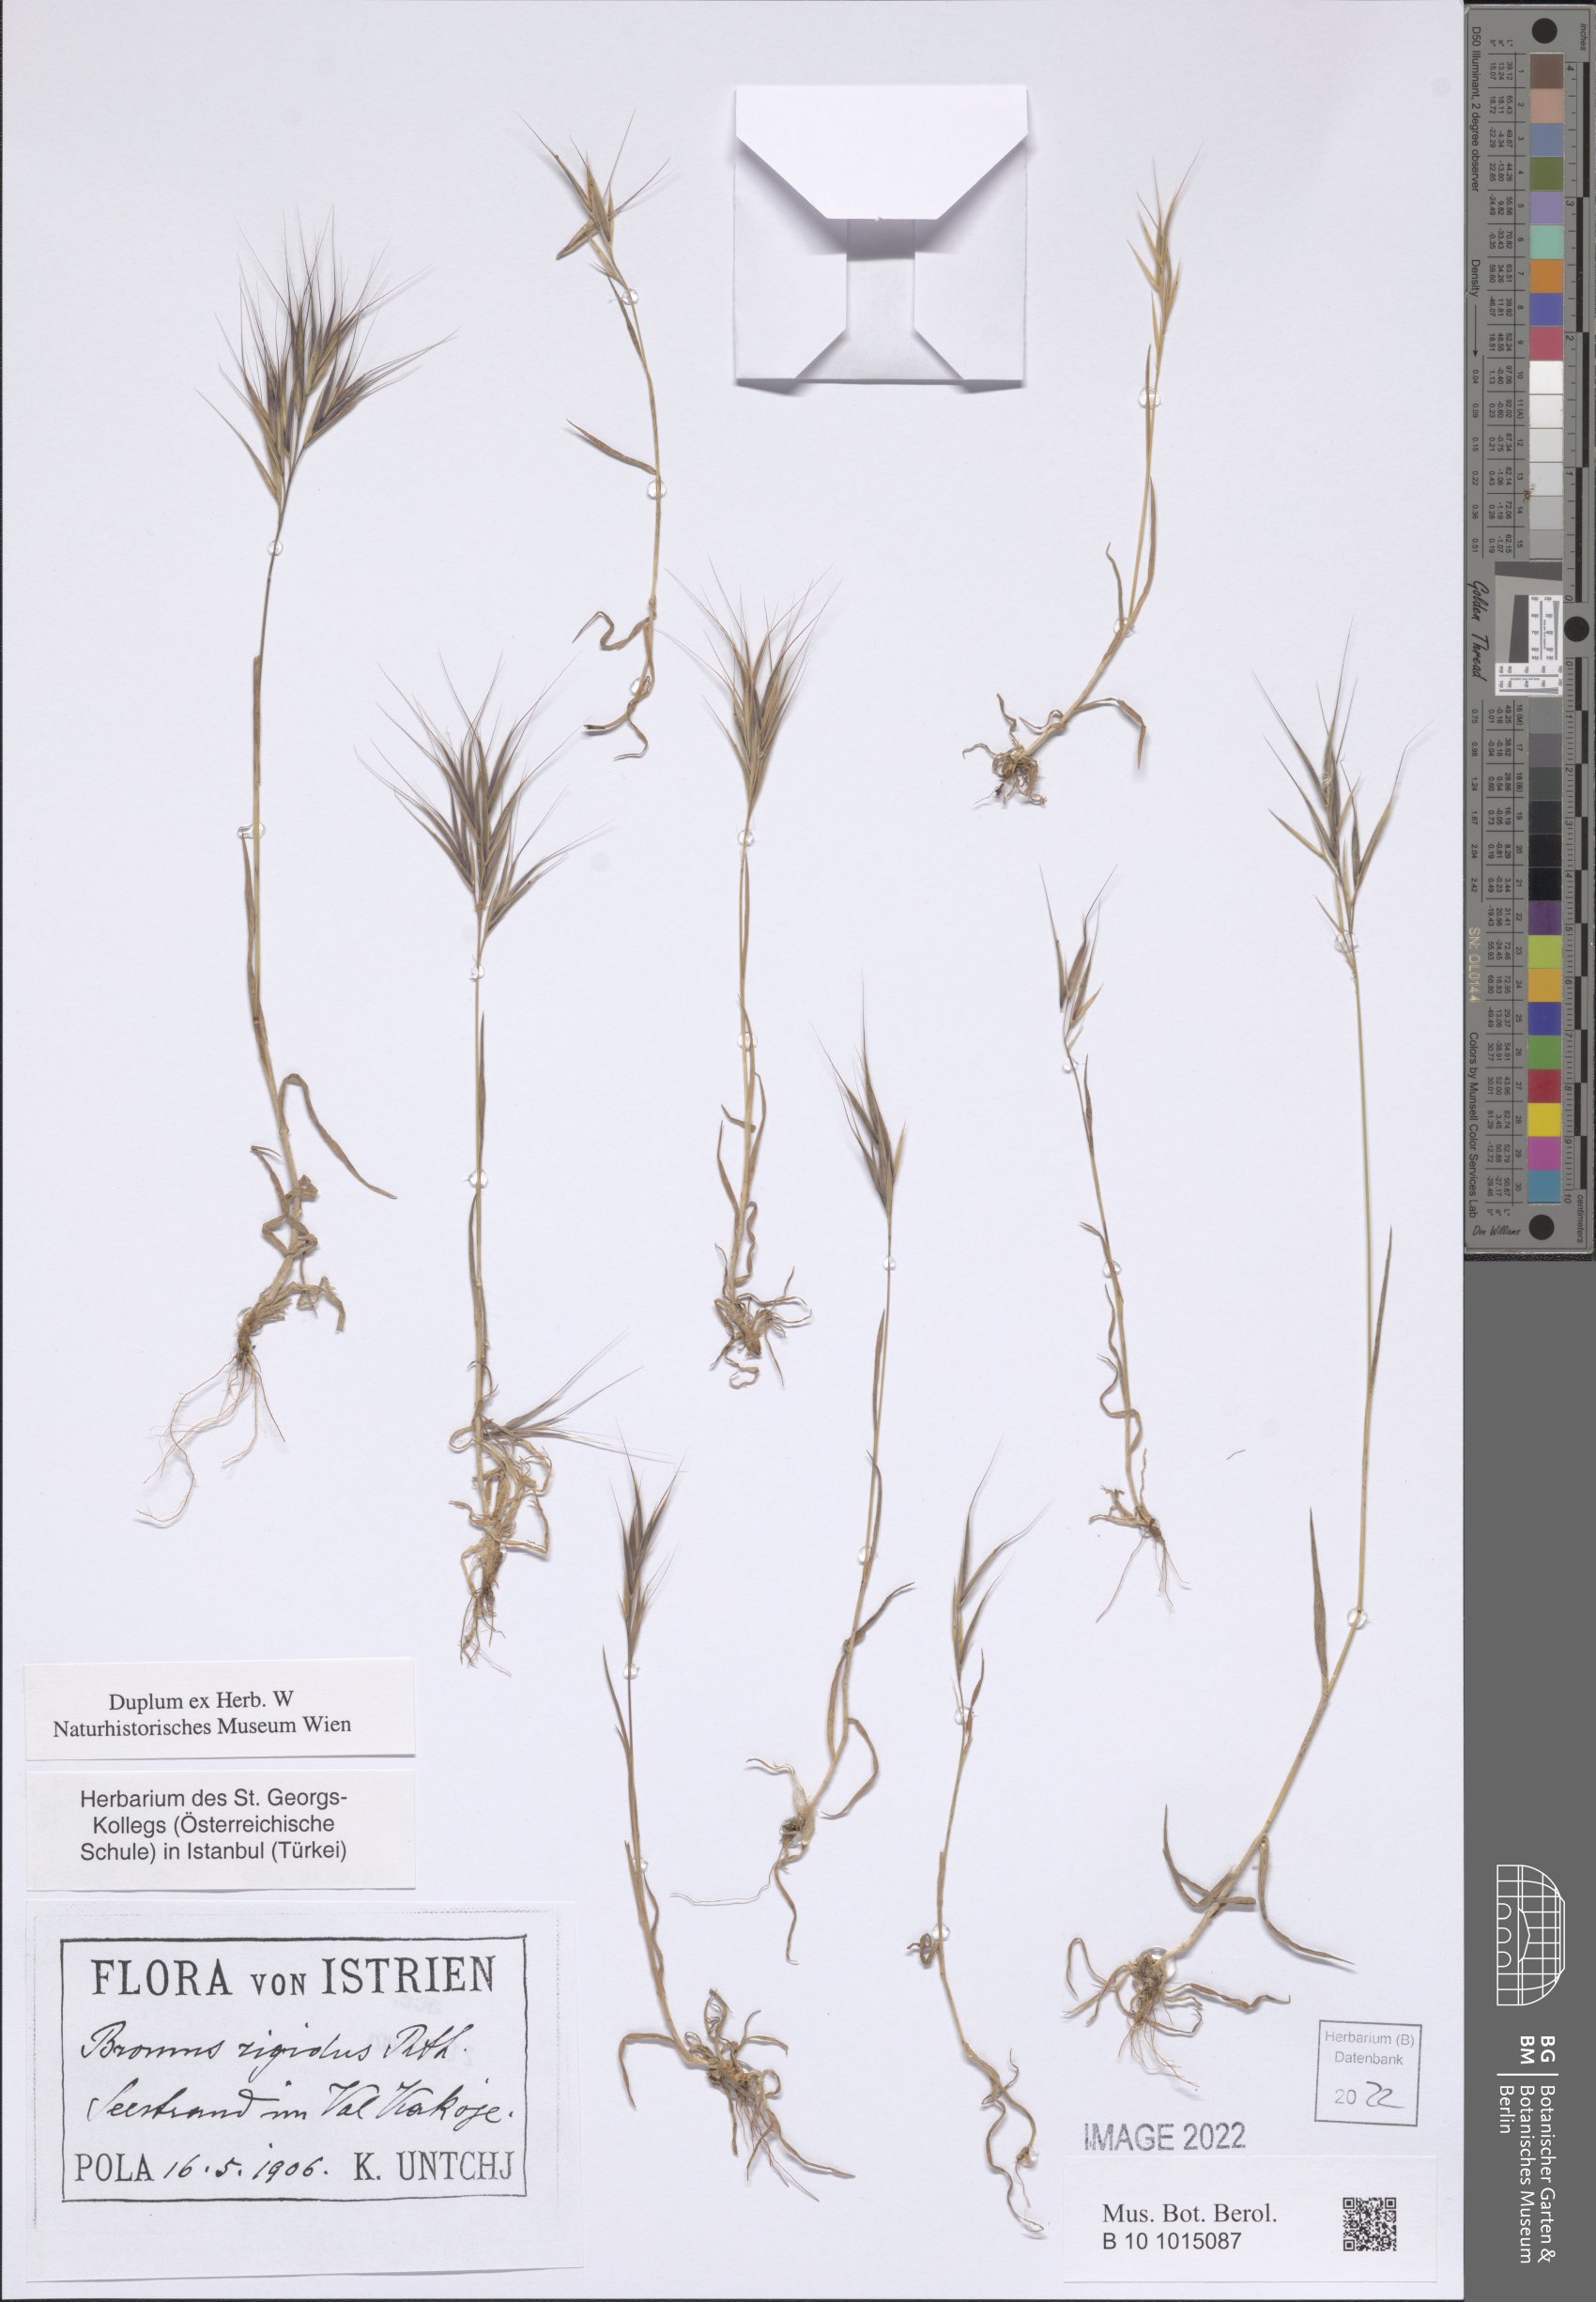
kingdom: Plantae
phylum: Tracheophyta
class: Liliopsida
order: Poales
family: Poaceae
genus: Bromus
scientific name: Bromus rigidus
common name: Ripgut brome
